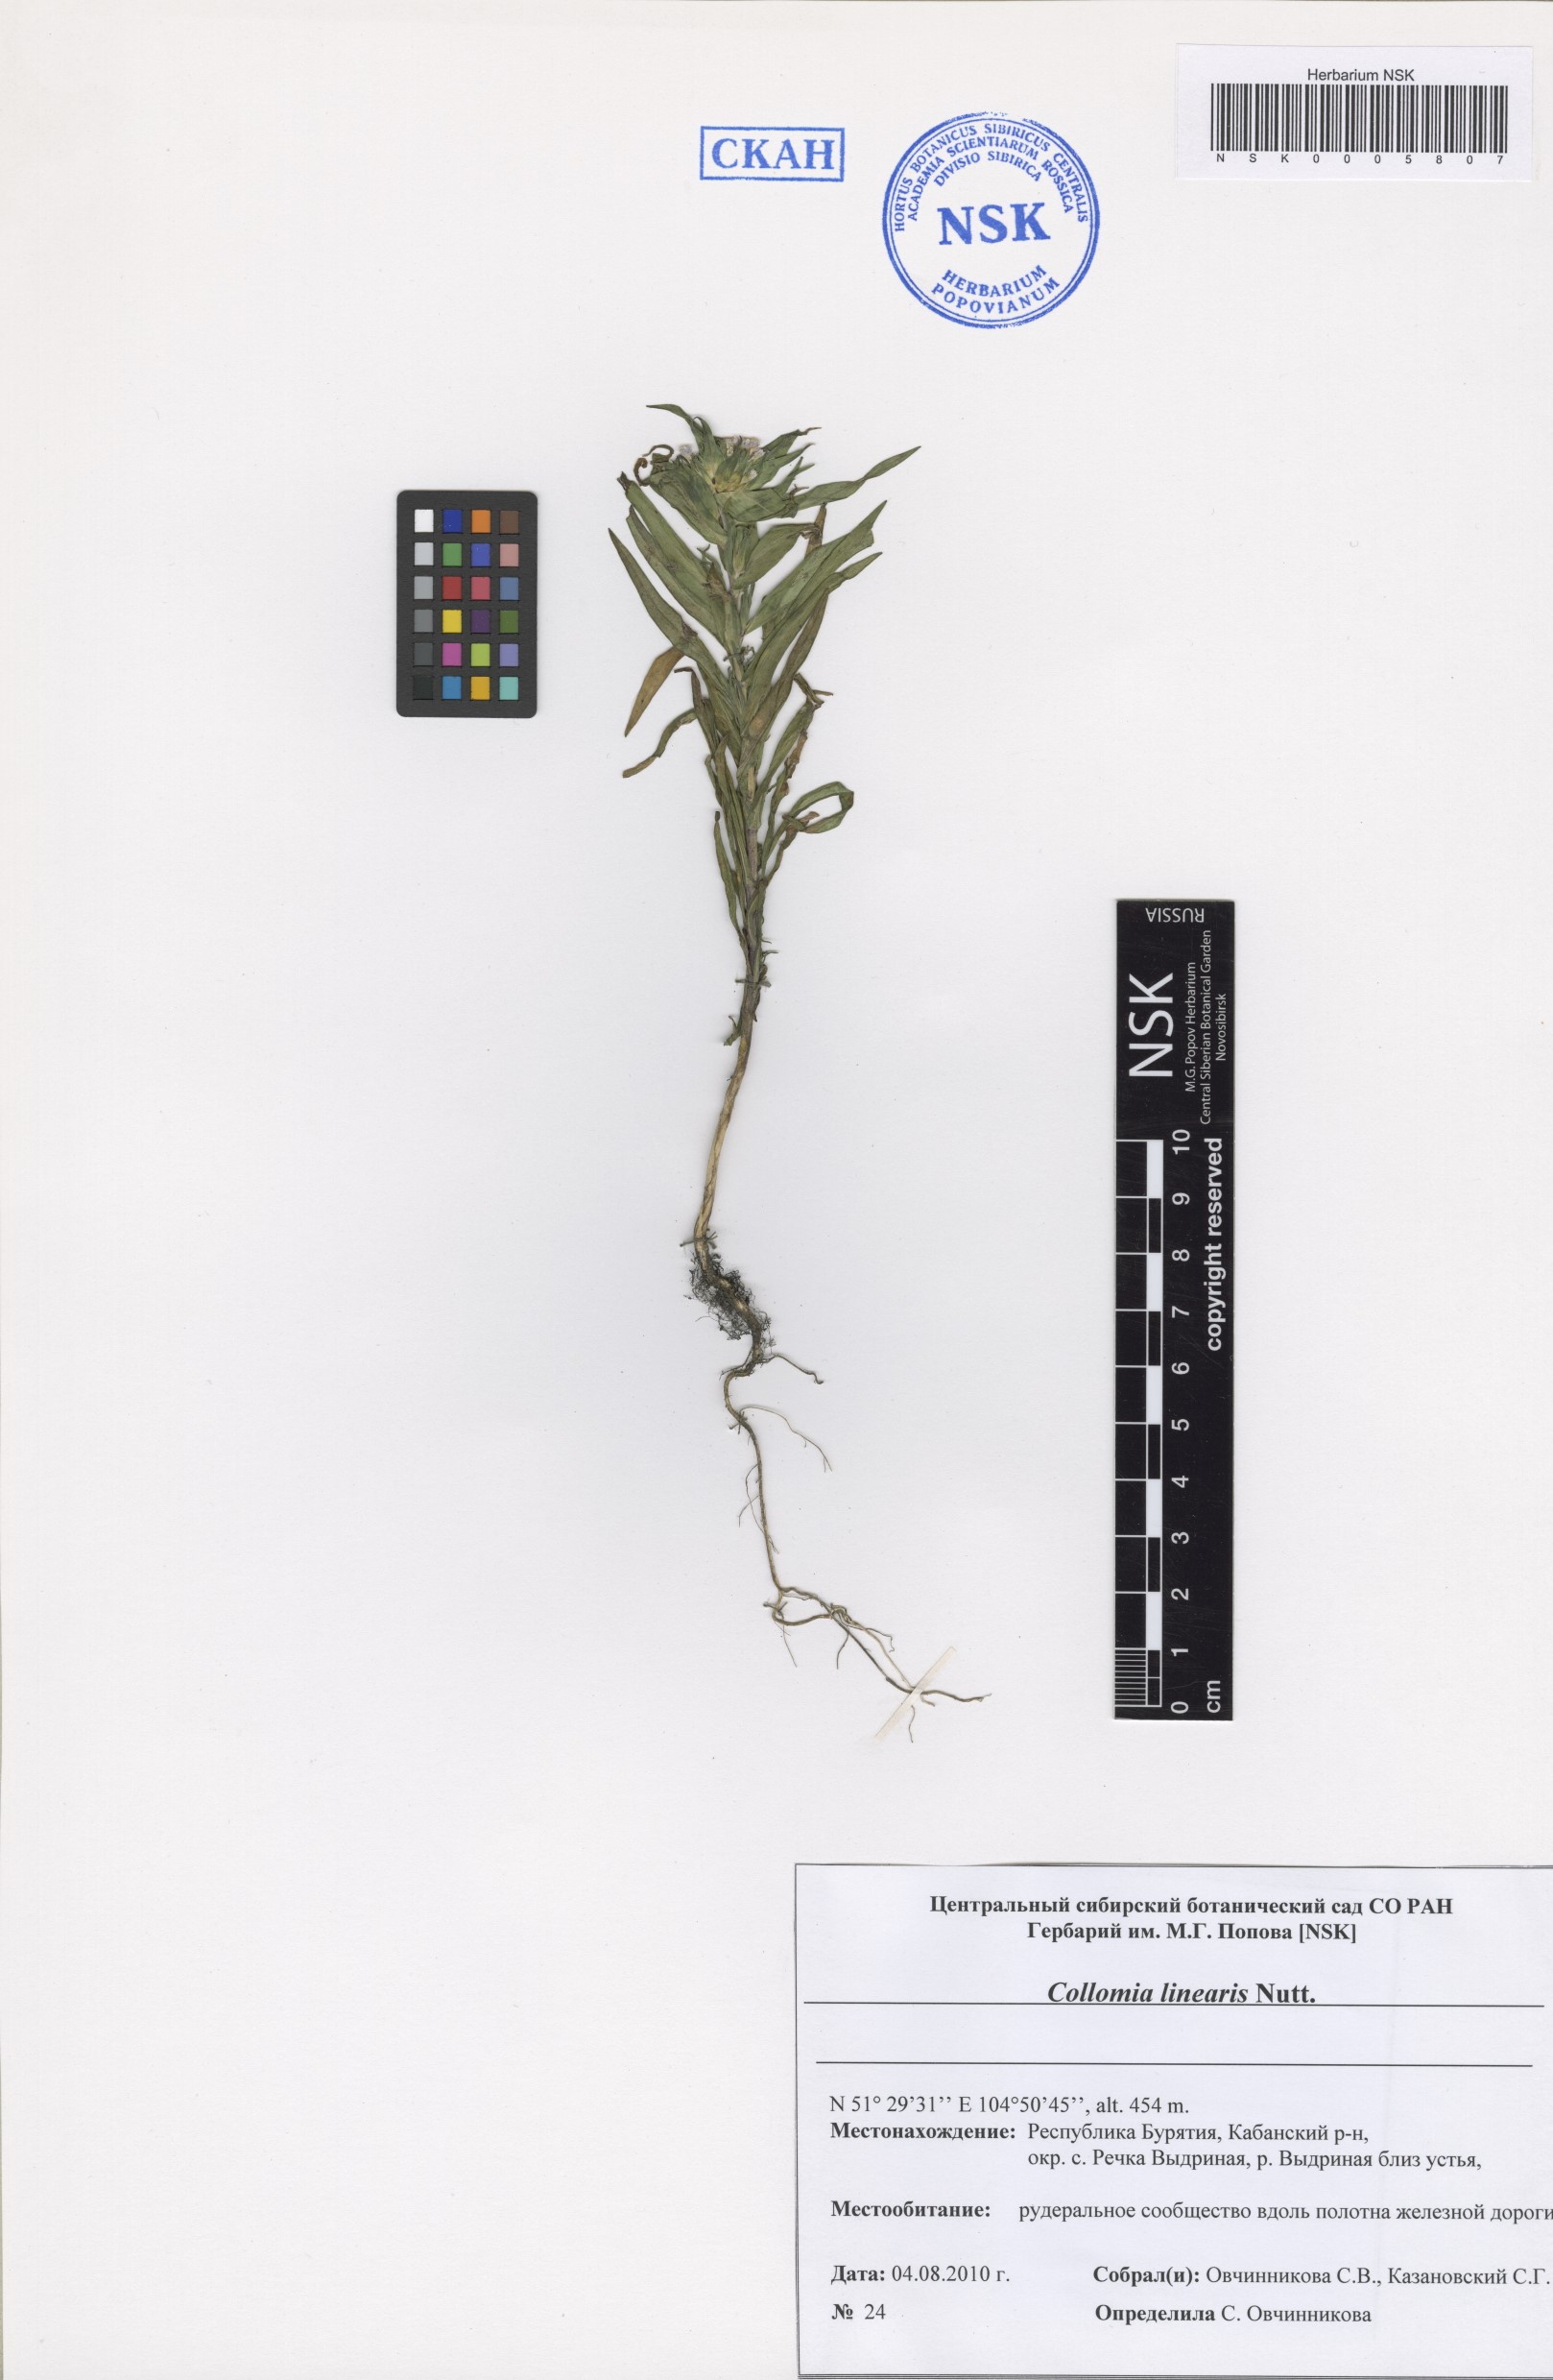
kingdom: Plantae
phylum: Tracheophyta
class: Magnoliopsida
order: Ericales
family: Polemoniaceae
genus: Collomia
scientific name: Collomia linearis
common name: Tiny trumpet
